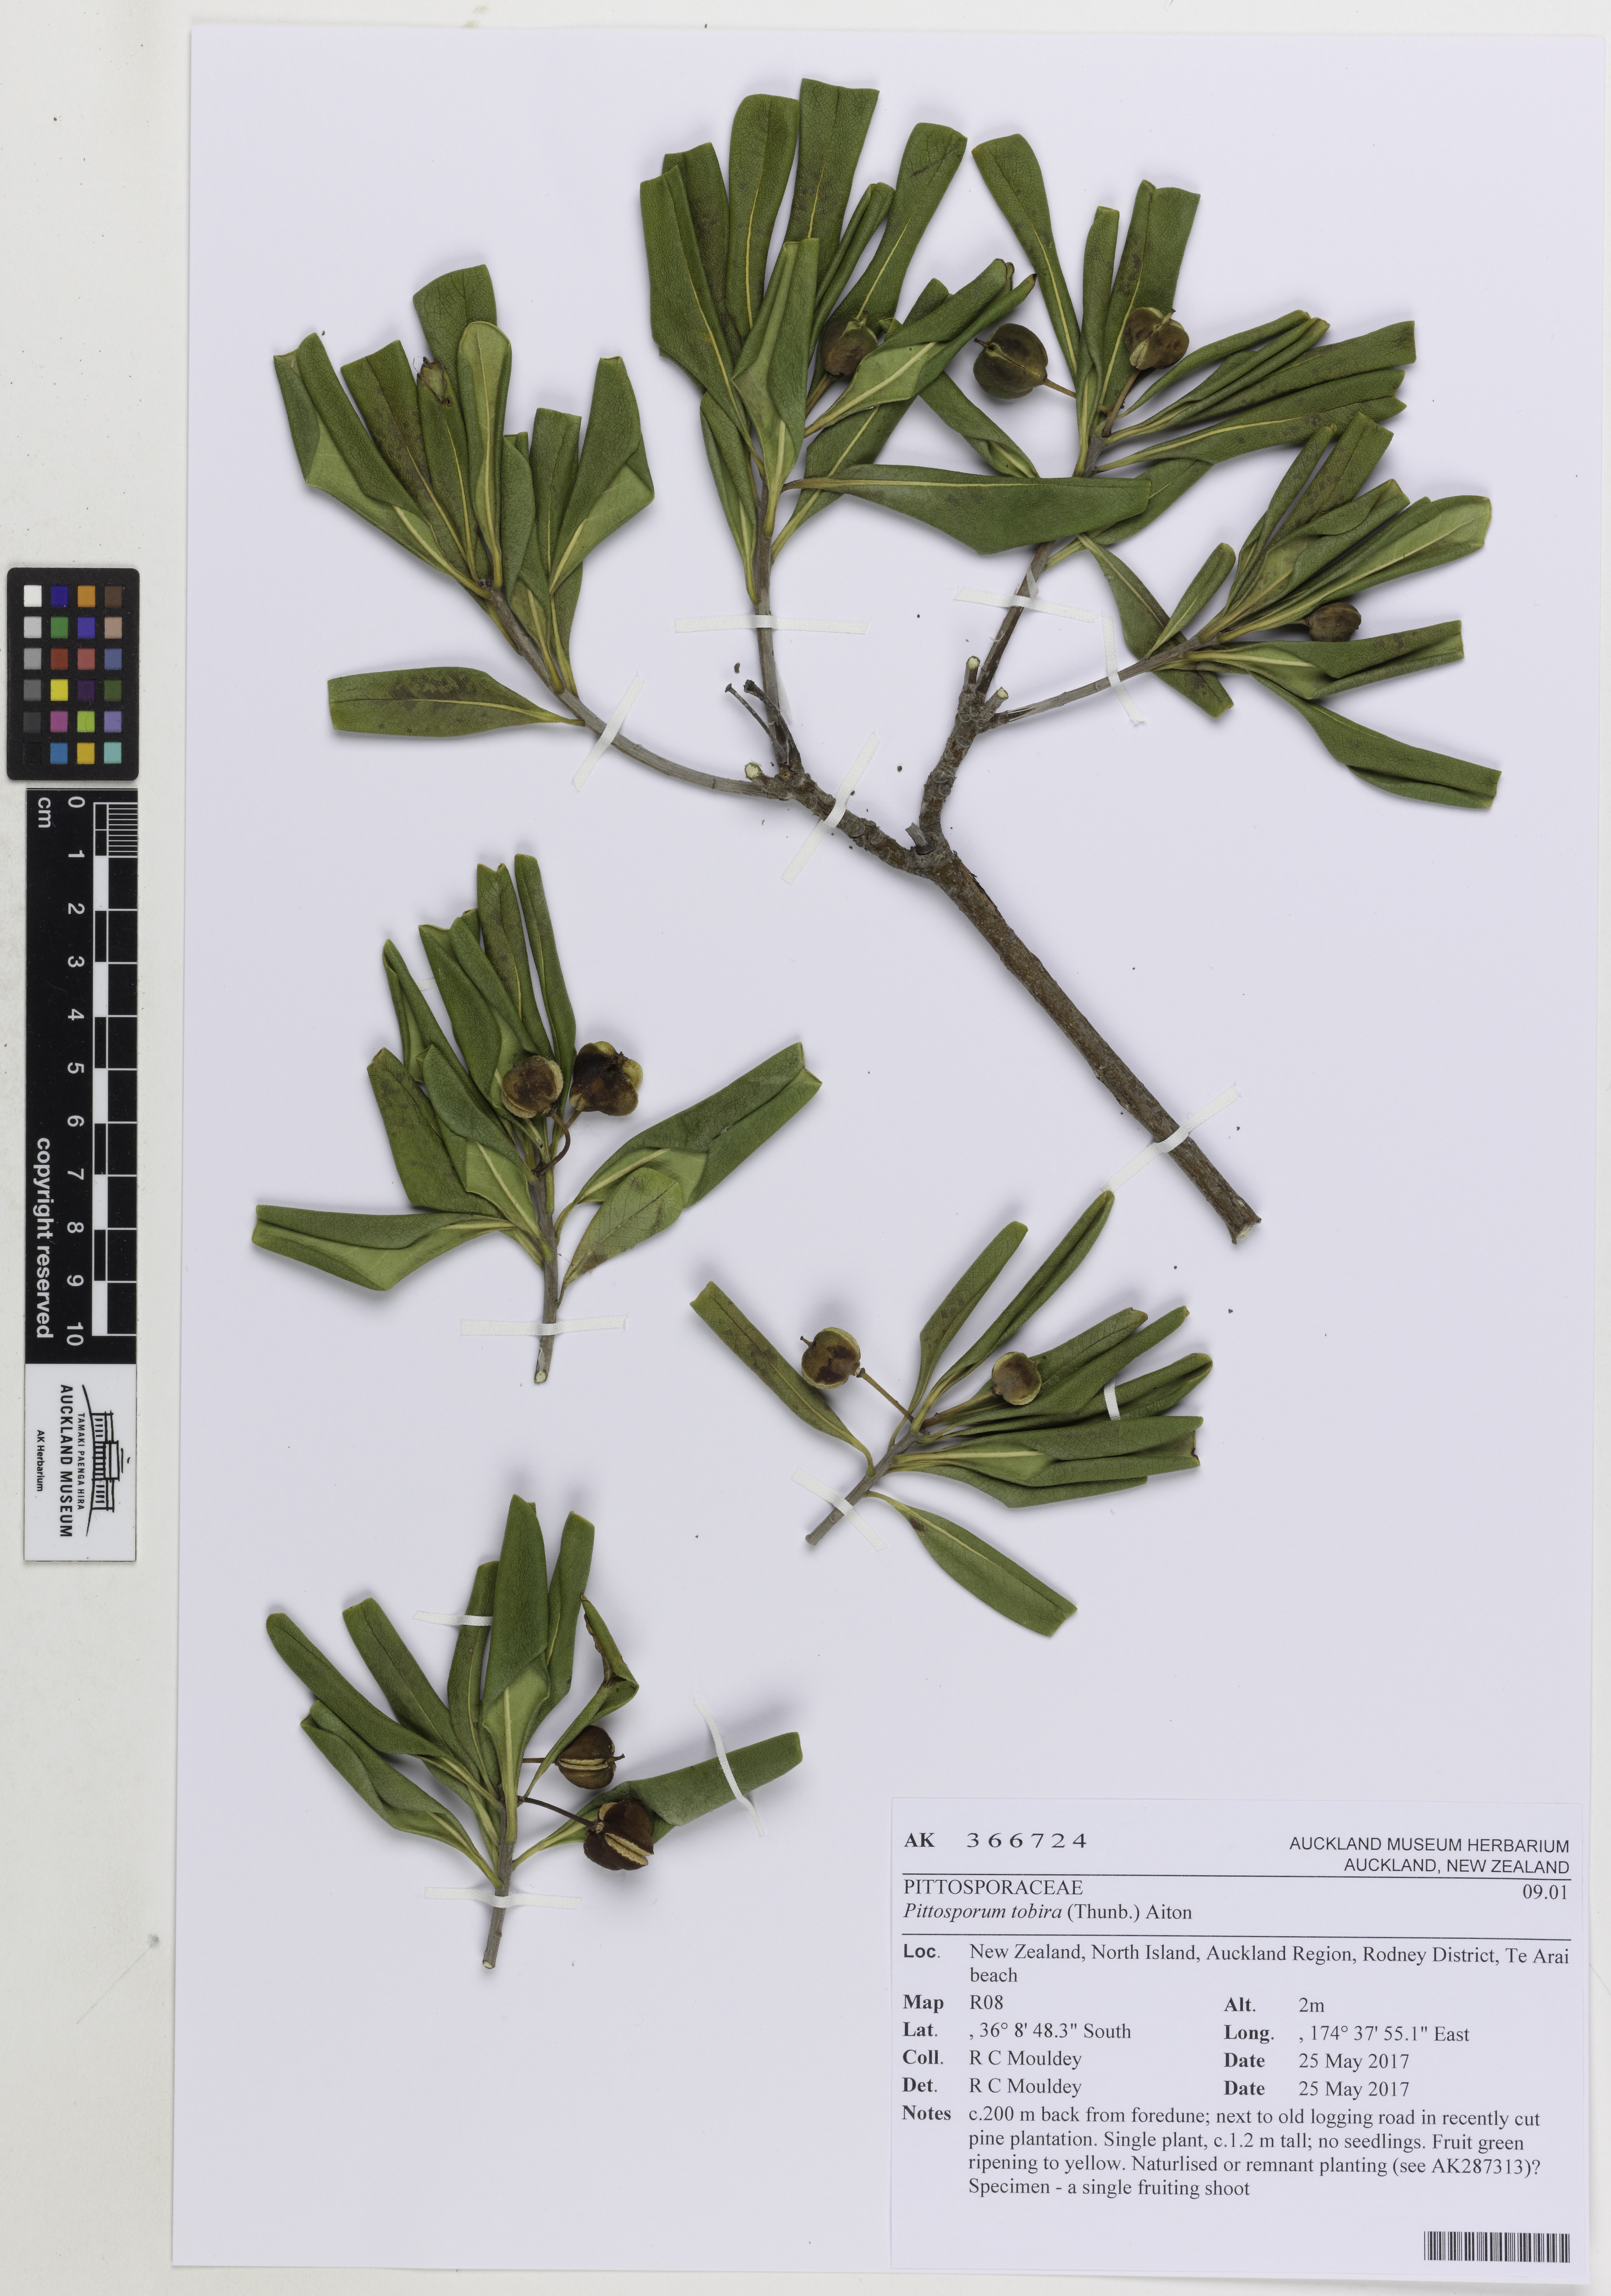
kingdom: Plantae
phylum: Tracheophyta
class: Magnoliopsida
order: Apiales
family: Pittosporaceae
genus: Pittosporum
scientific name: Pittosporum tobira
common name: Japanese cheesewood
